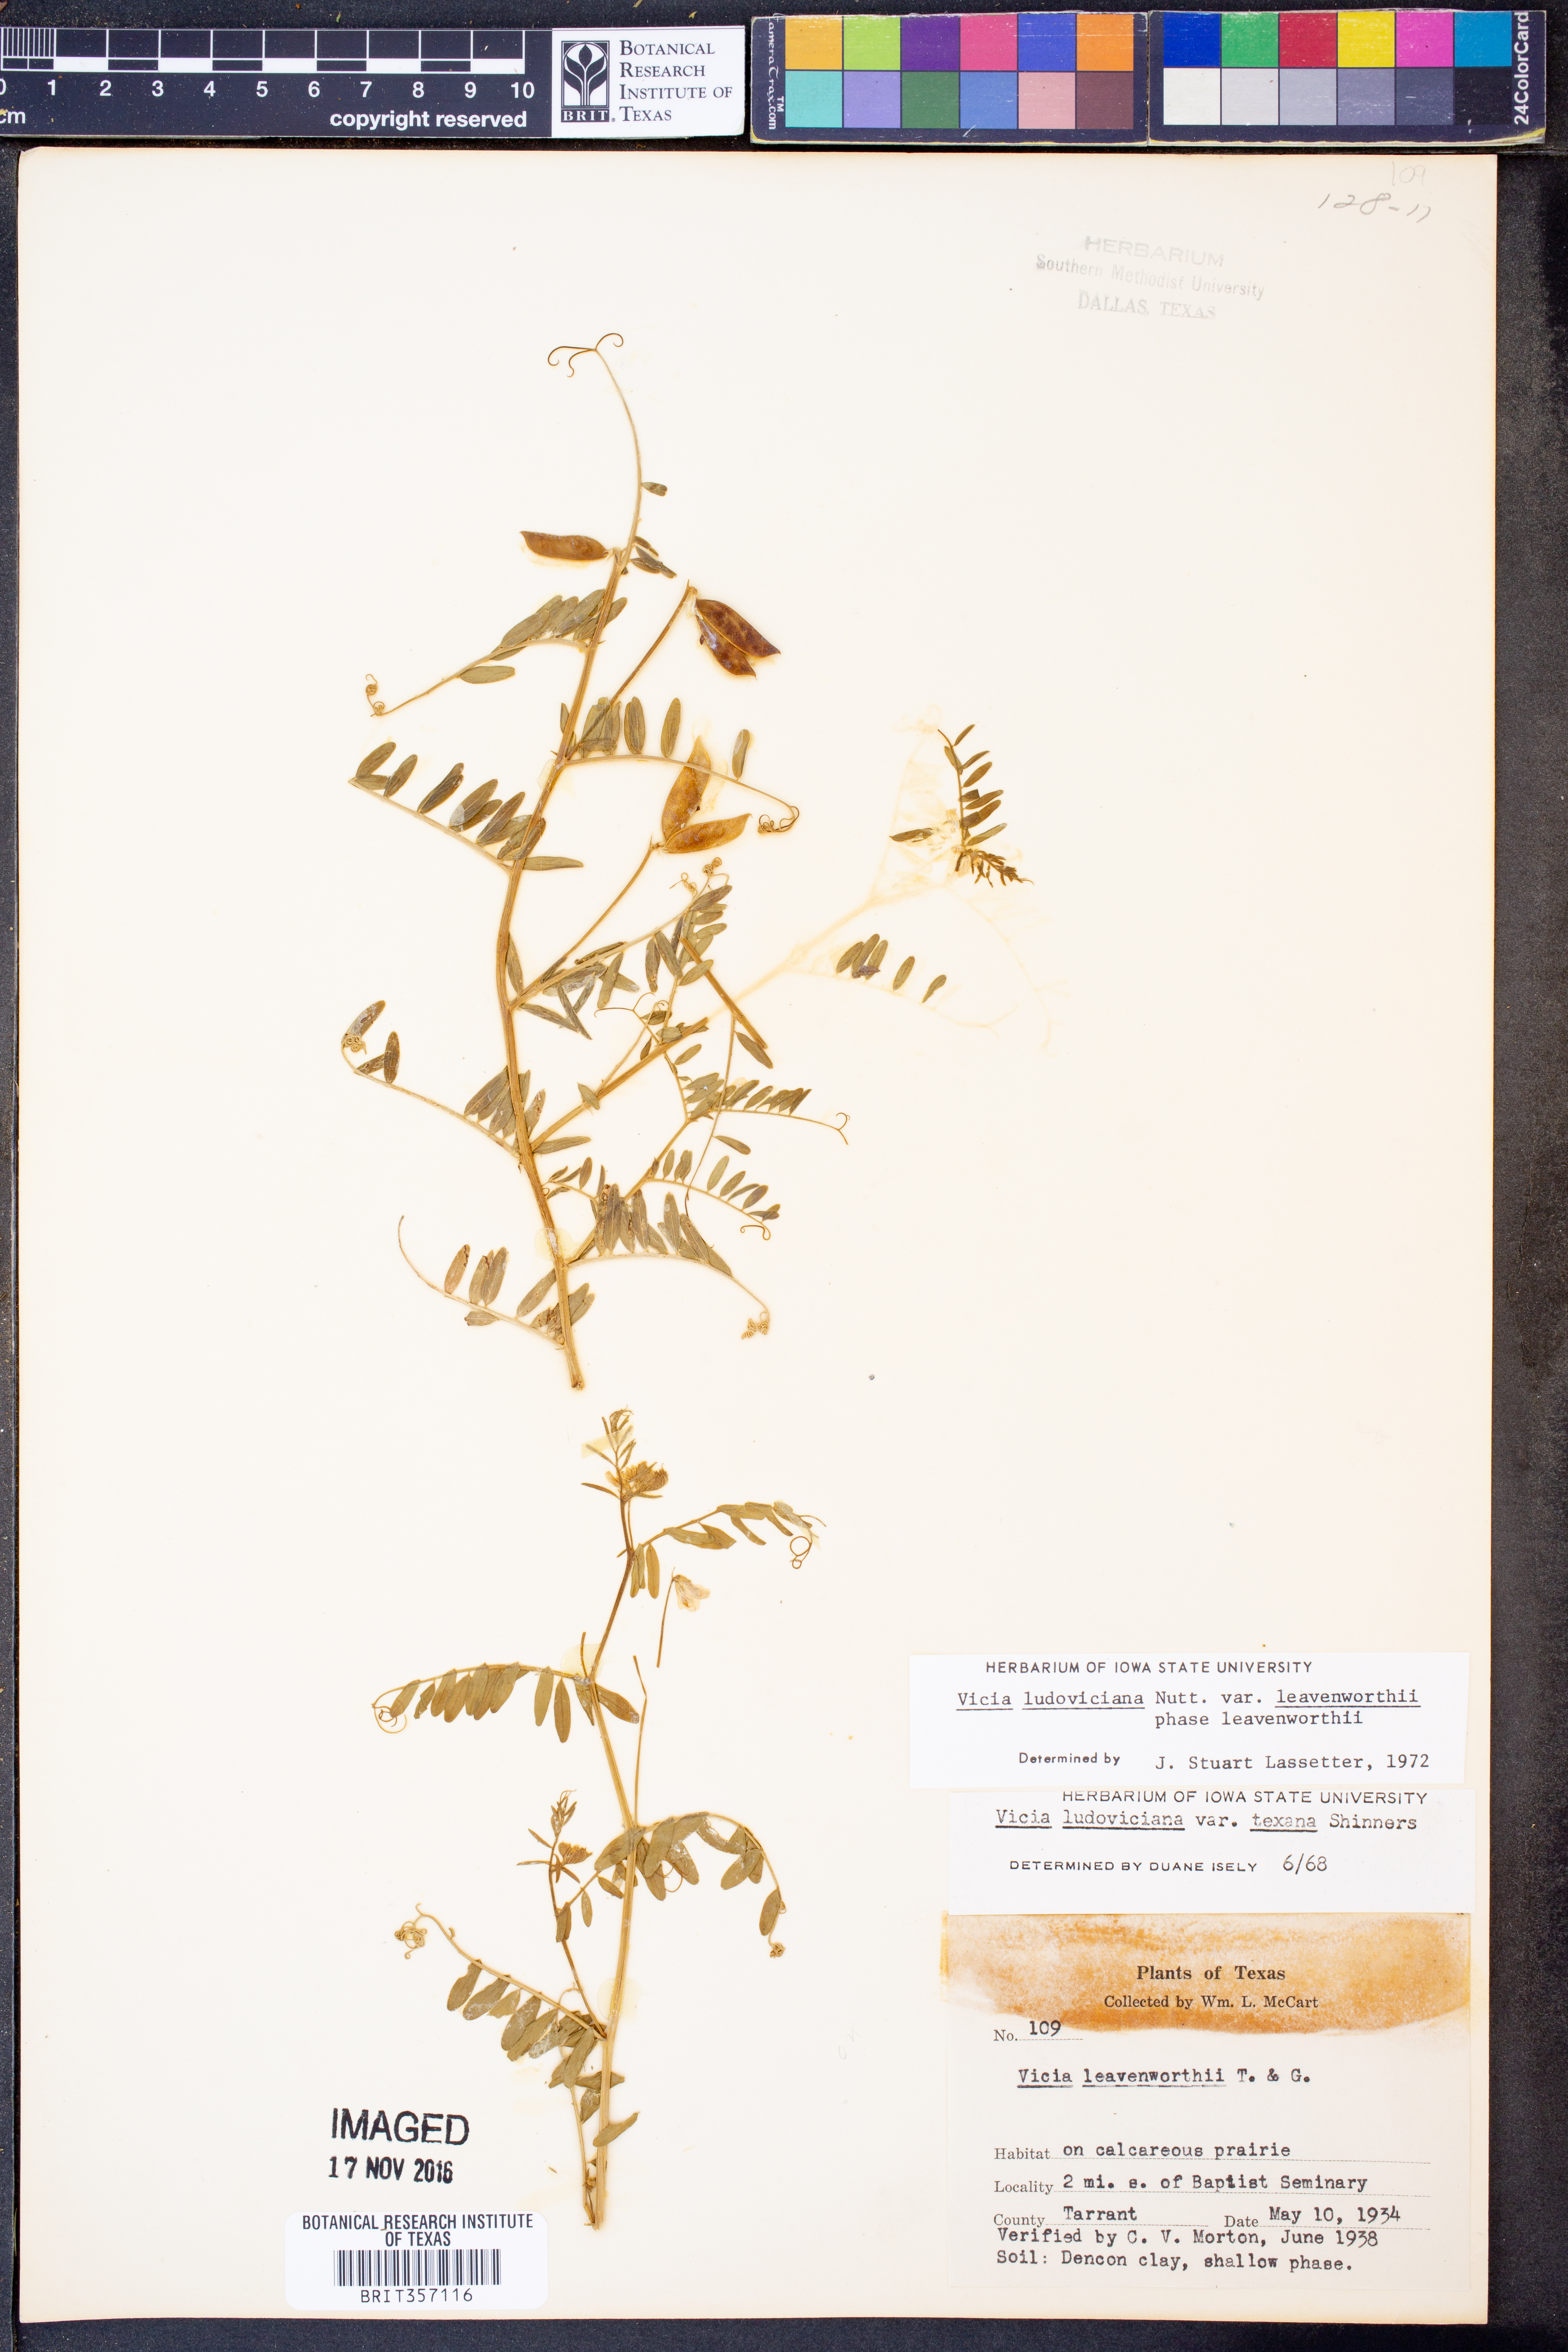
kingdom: Plantae
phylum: Tracheophyta
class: Magnoliopsida
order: Fabales
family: Fabaceae
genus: Vicia
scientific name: Vicia ludoviciana
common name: Louisiana vetch
